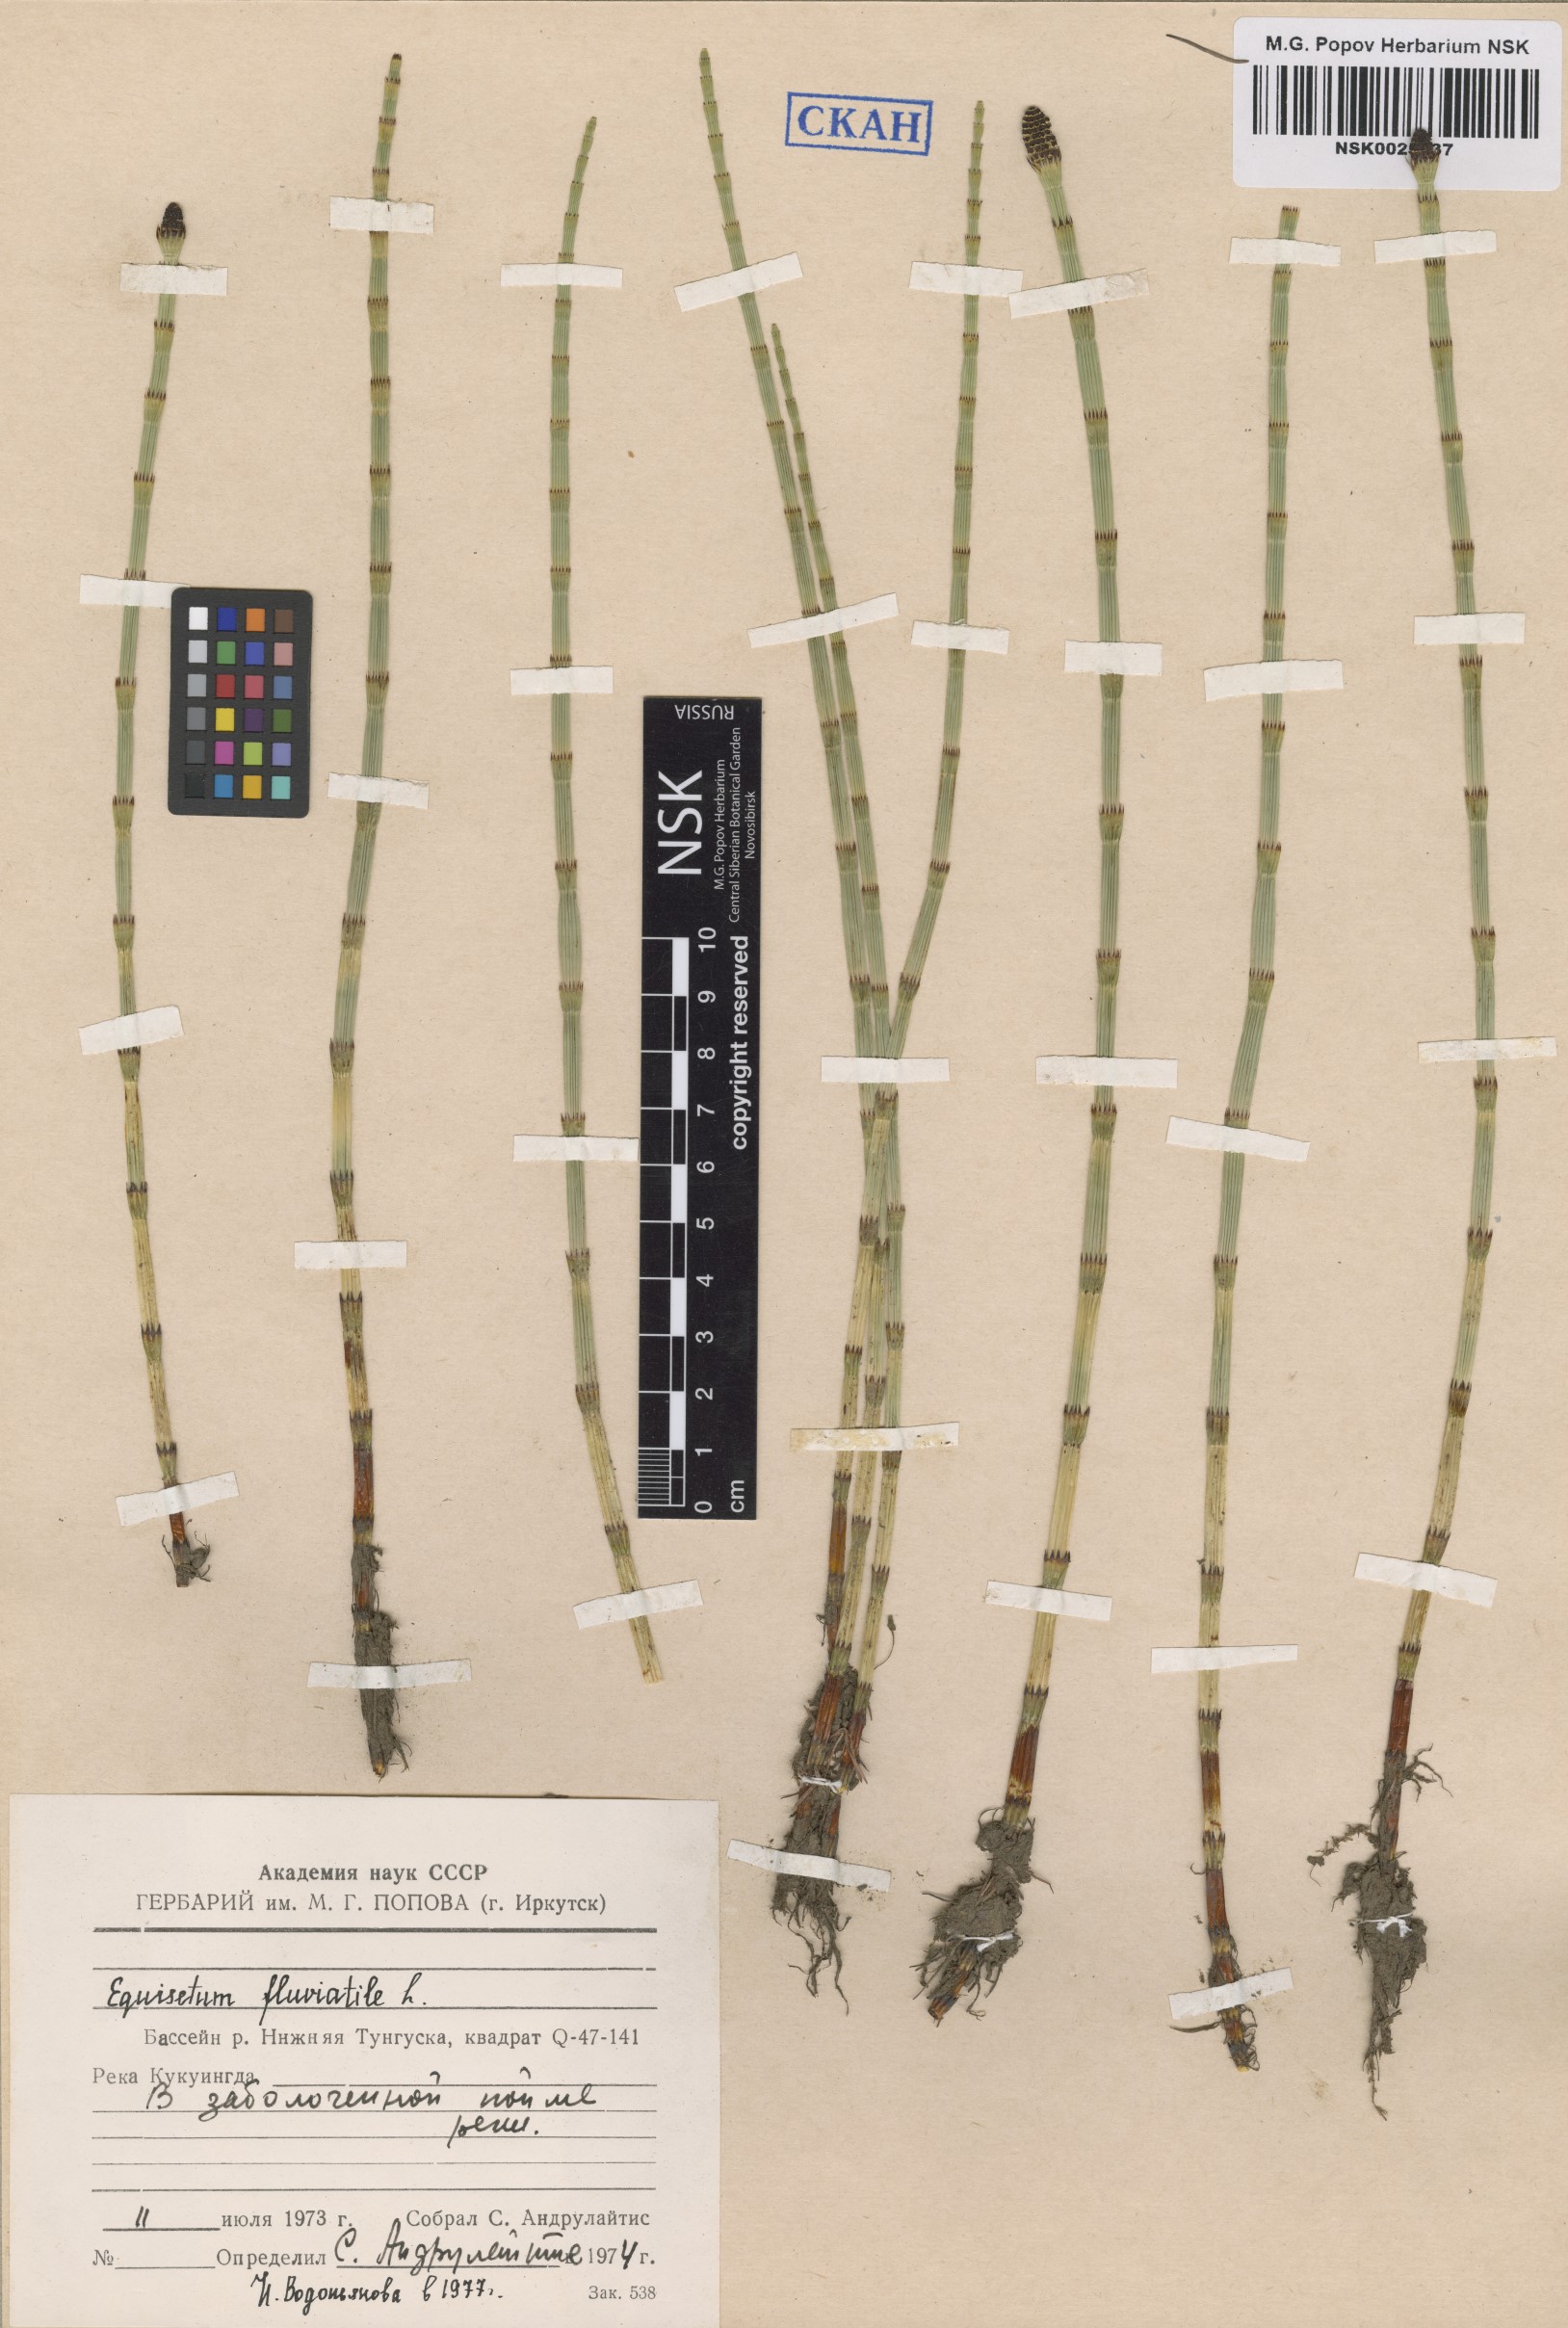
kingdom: Plantae
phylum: Tracheophyta
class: Polypodiopsida
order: Equisetales
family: Equisetaceae
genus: Equisetum
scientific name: Equisetum fluviatile
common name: Water horsetail
